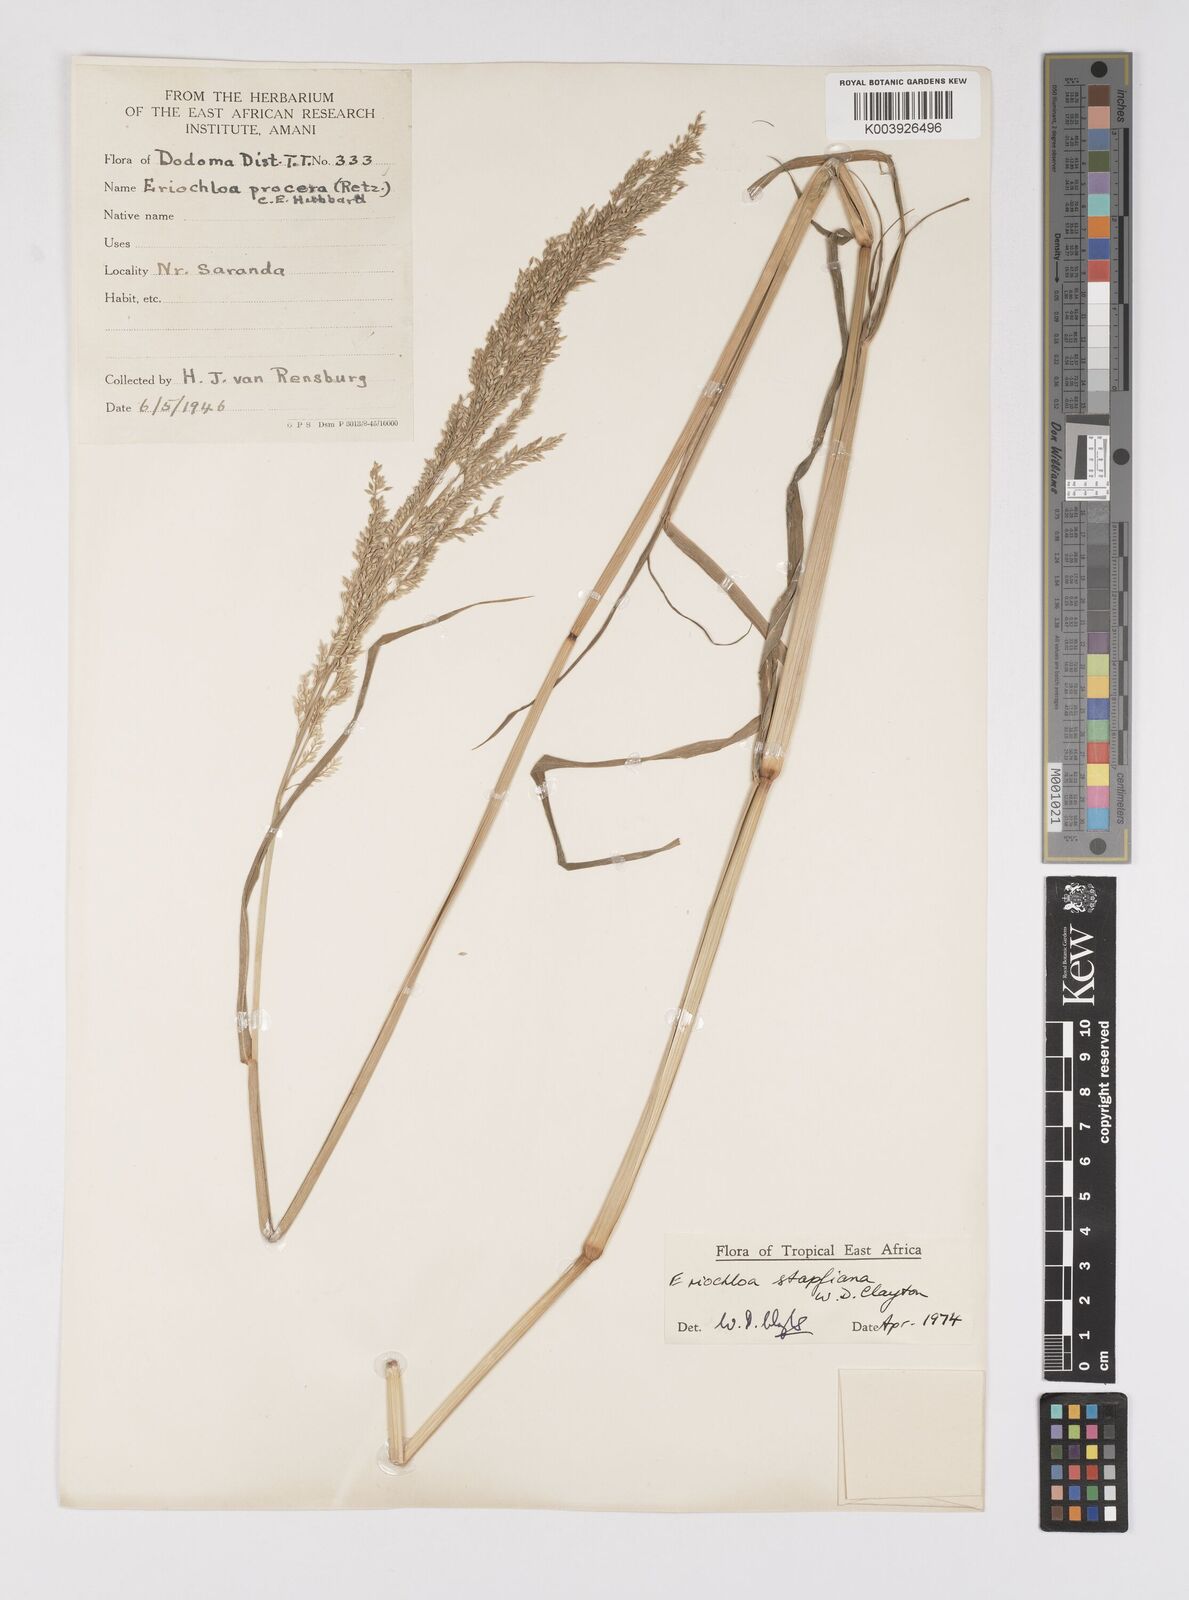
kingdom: Plantae
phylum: Tracheophyta
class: Liliopsida
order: Poales
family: Poaceae
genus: Eriochloa
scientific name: Eriochloa stapfiana
